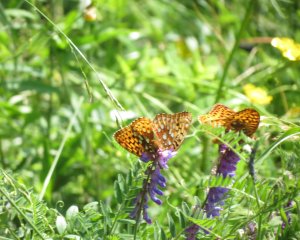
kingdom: Animalia
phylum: Arthropoda
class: Insecta
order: Lepidoptera
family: Nymphalidae
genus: Speyeria
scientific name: Speyeria cybele
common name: Great Spangled Fritillary
